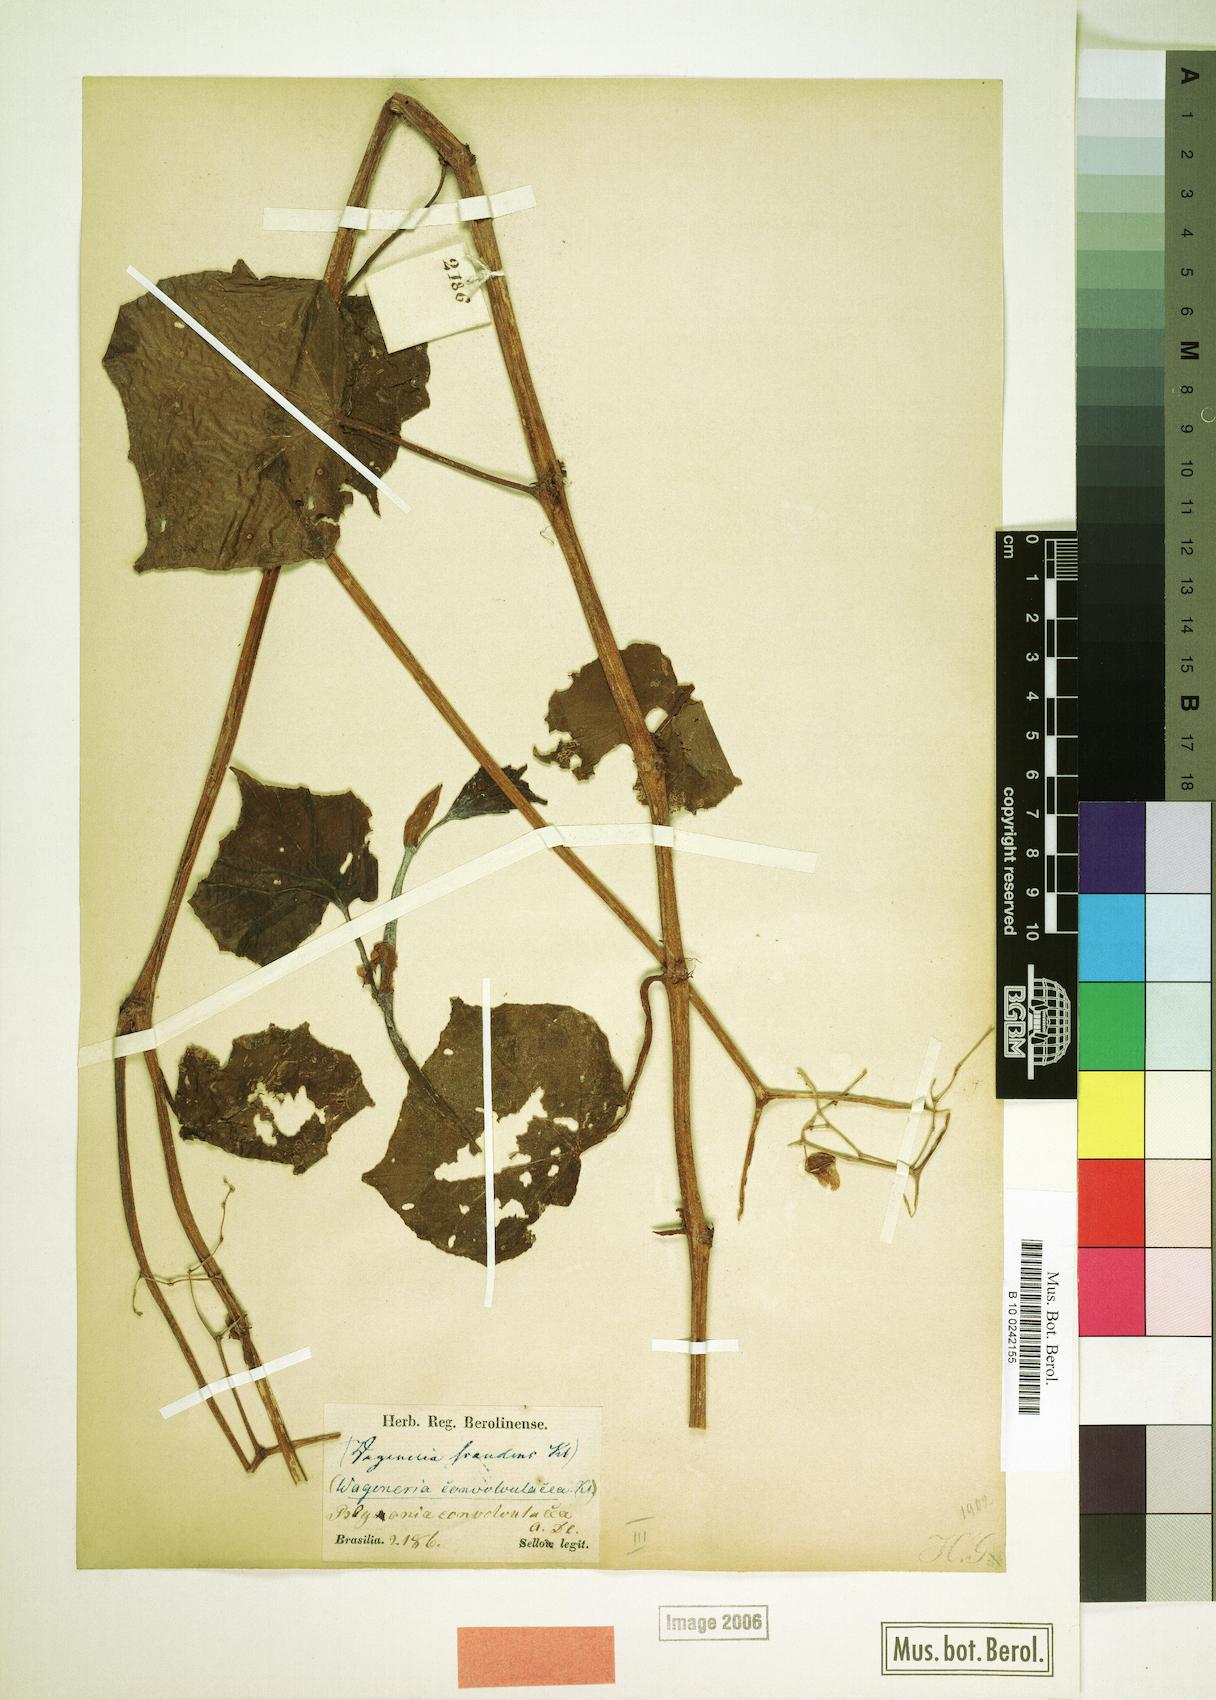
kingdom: Plantae
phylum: Tracheophyta
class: Magnoliopsida
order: Cucurbitales
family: Begoniaceae
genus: Begonia
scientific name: Begonia convolvulacea
